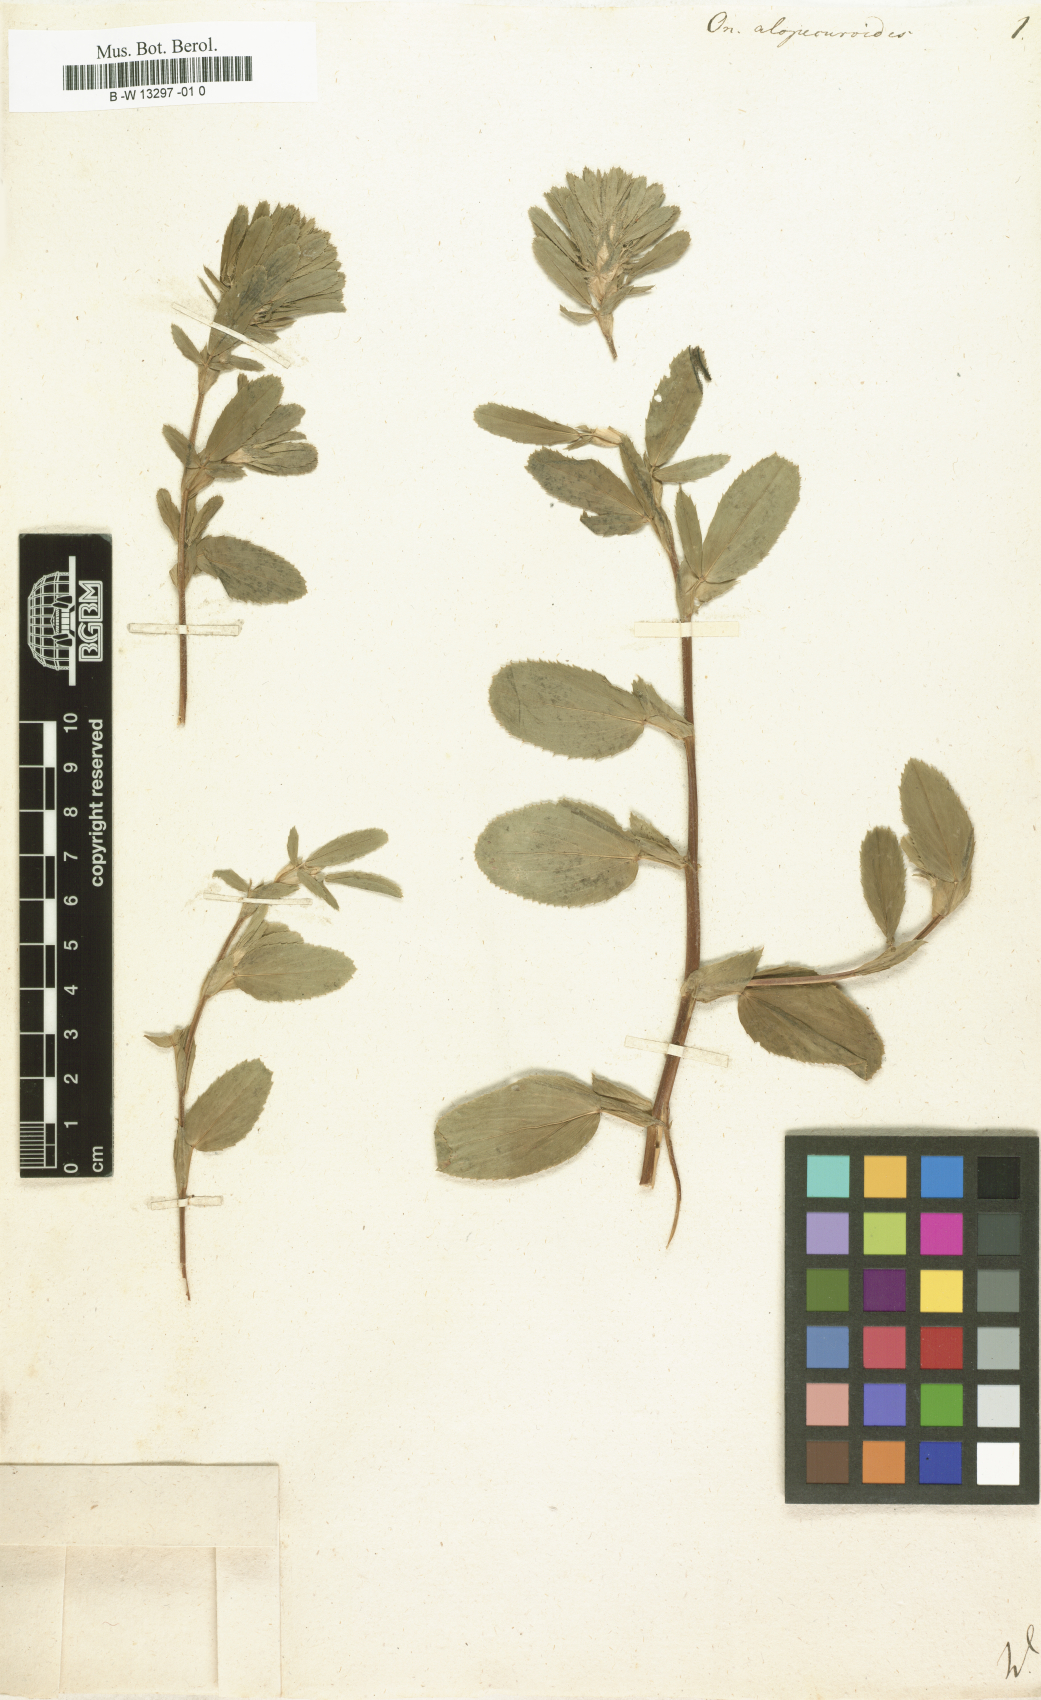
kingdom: Plantae
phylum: Tracheophyta
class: Magnoliopsida
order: Fabales
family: Fabaceae
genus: Ononis
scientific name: Ononis alopecuroides
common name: Salzmann's restharrow
